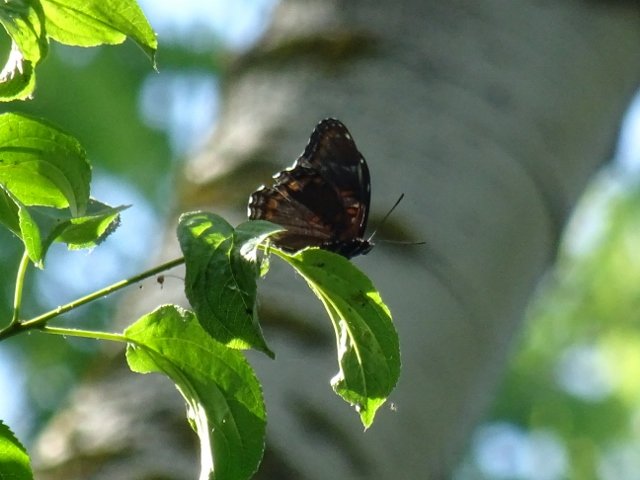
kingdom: Animalia
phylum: Arthropoda
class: Insecta
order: Lepidoptera
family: Nymphalidae
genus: Limenitis
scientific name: Limenitis astyanax
